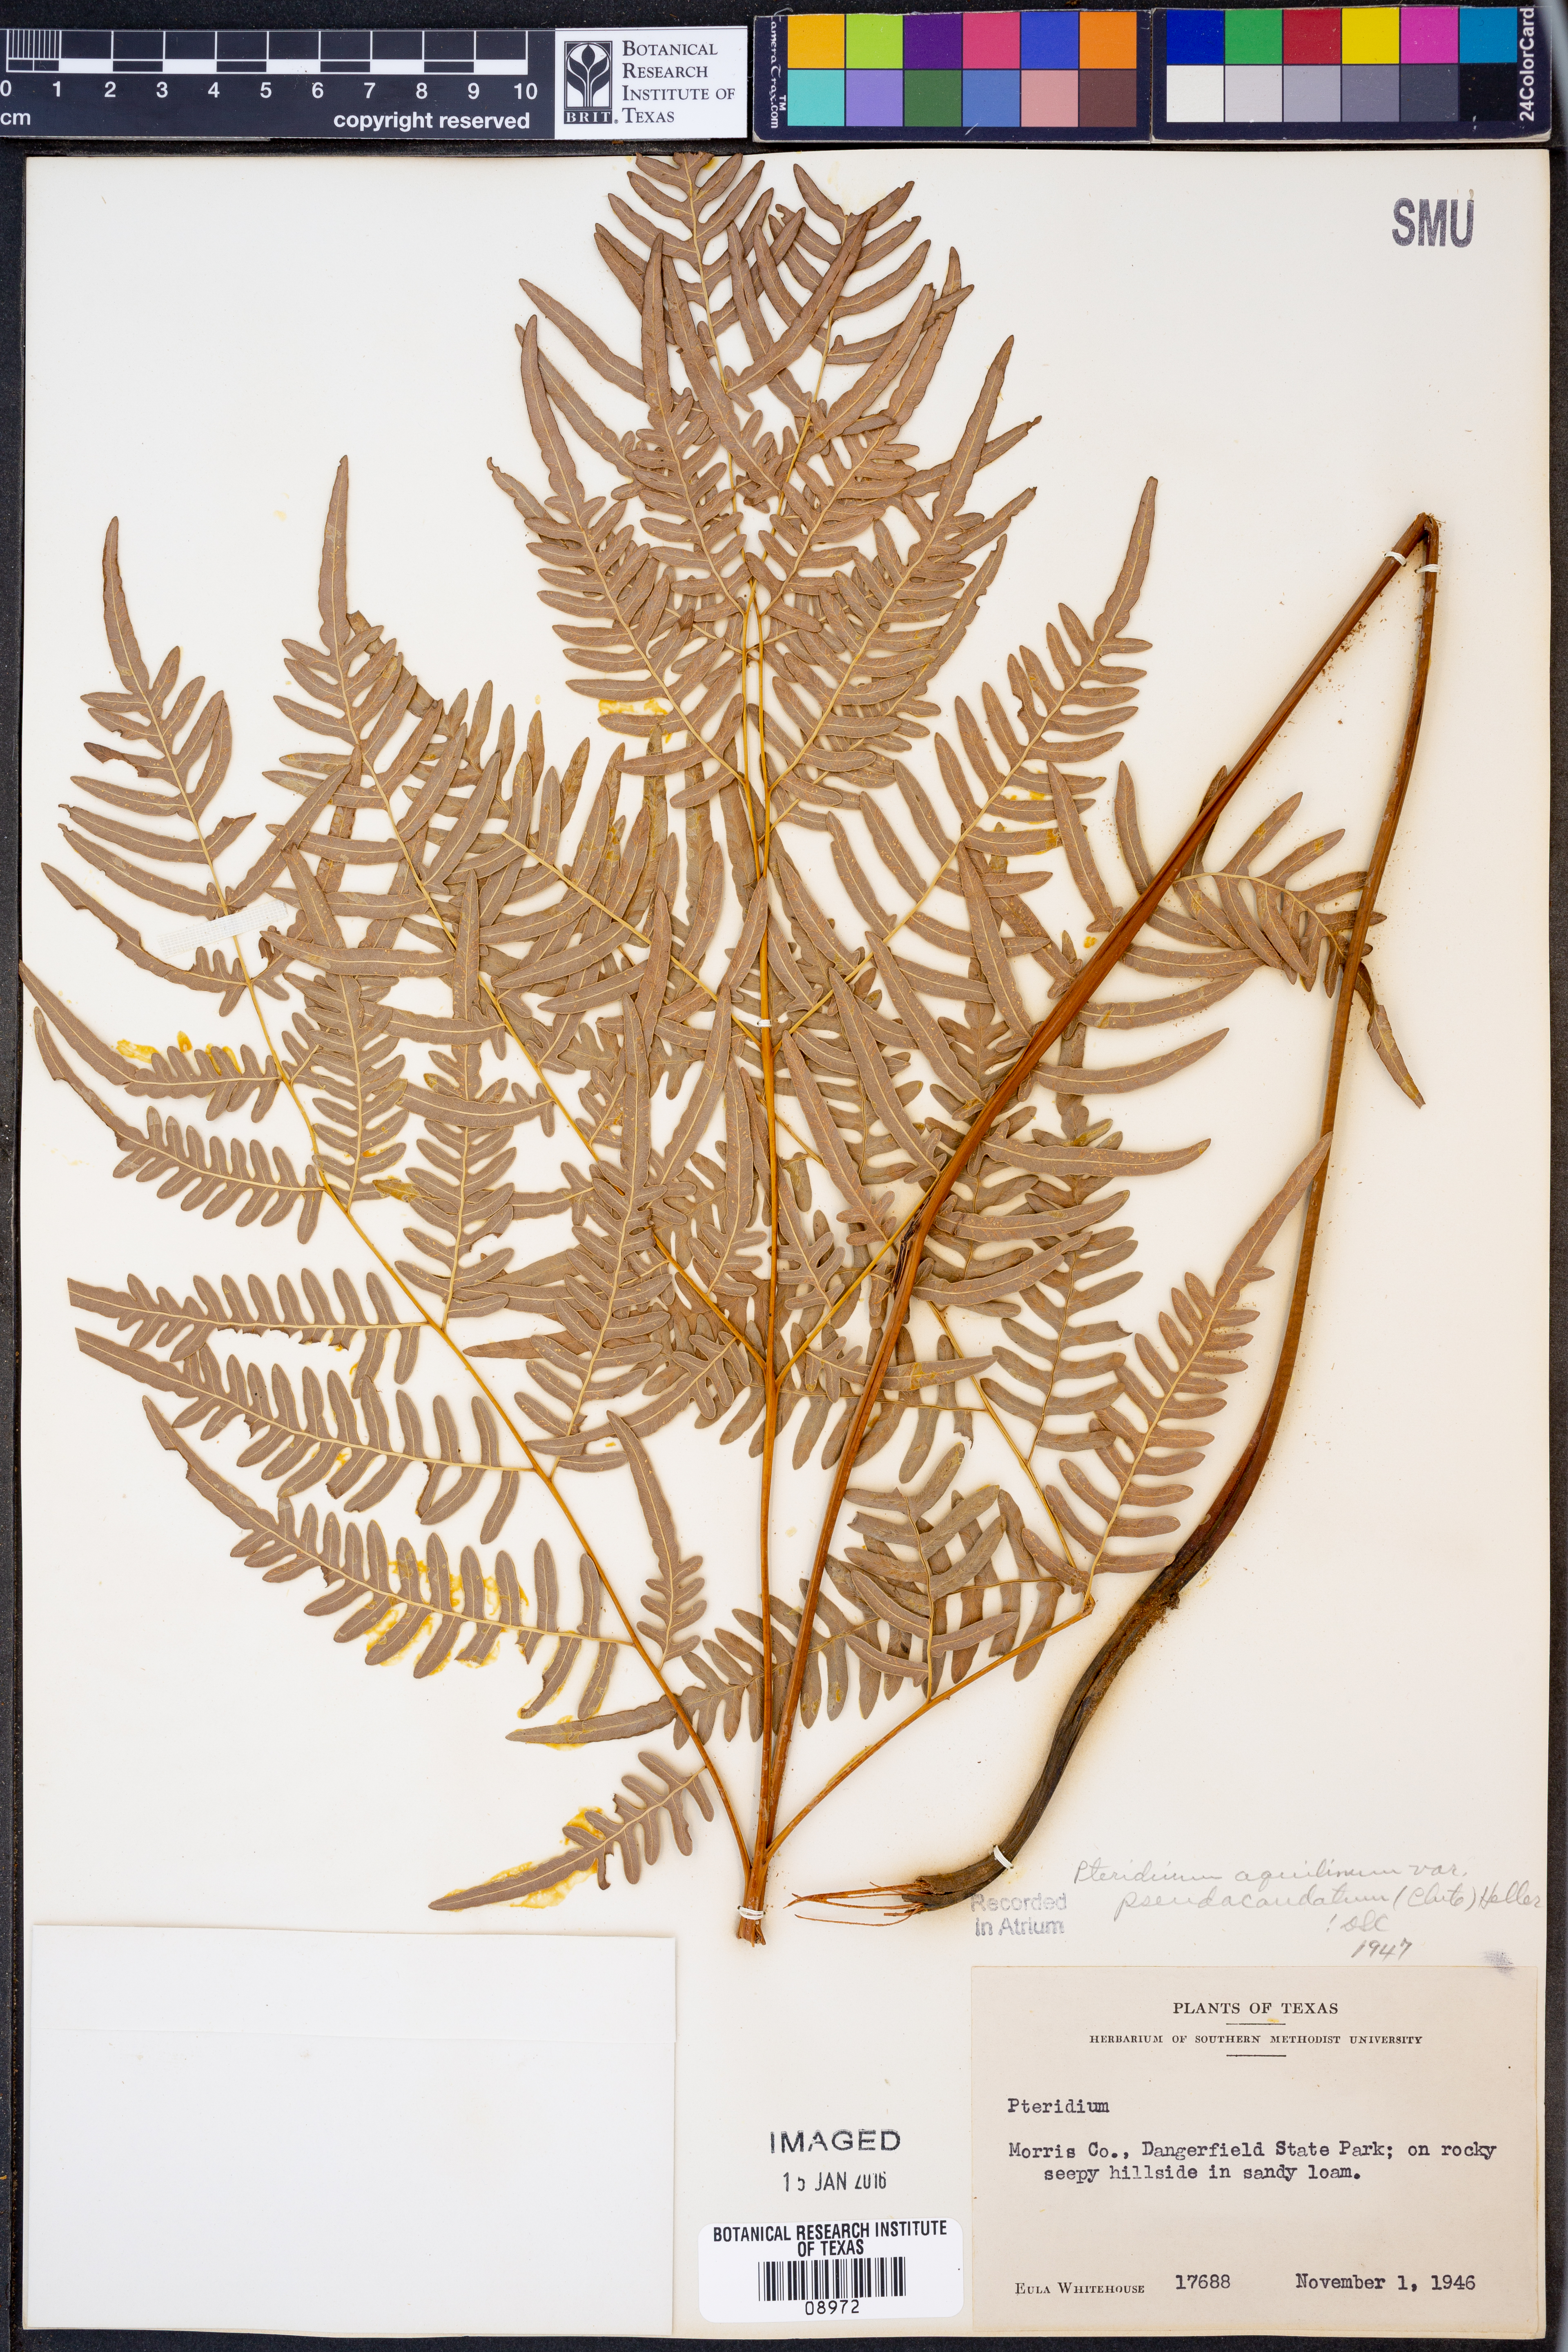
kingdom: Plantae
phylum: Tracheophyta
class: Polypodiopsida
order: Polypodiales
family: Dennstaedtiaceae
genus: Pteridium
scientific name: Pteridium aquilinum
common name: Bracken
